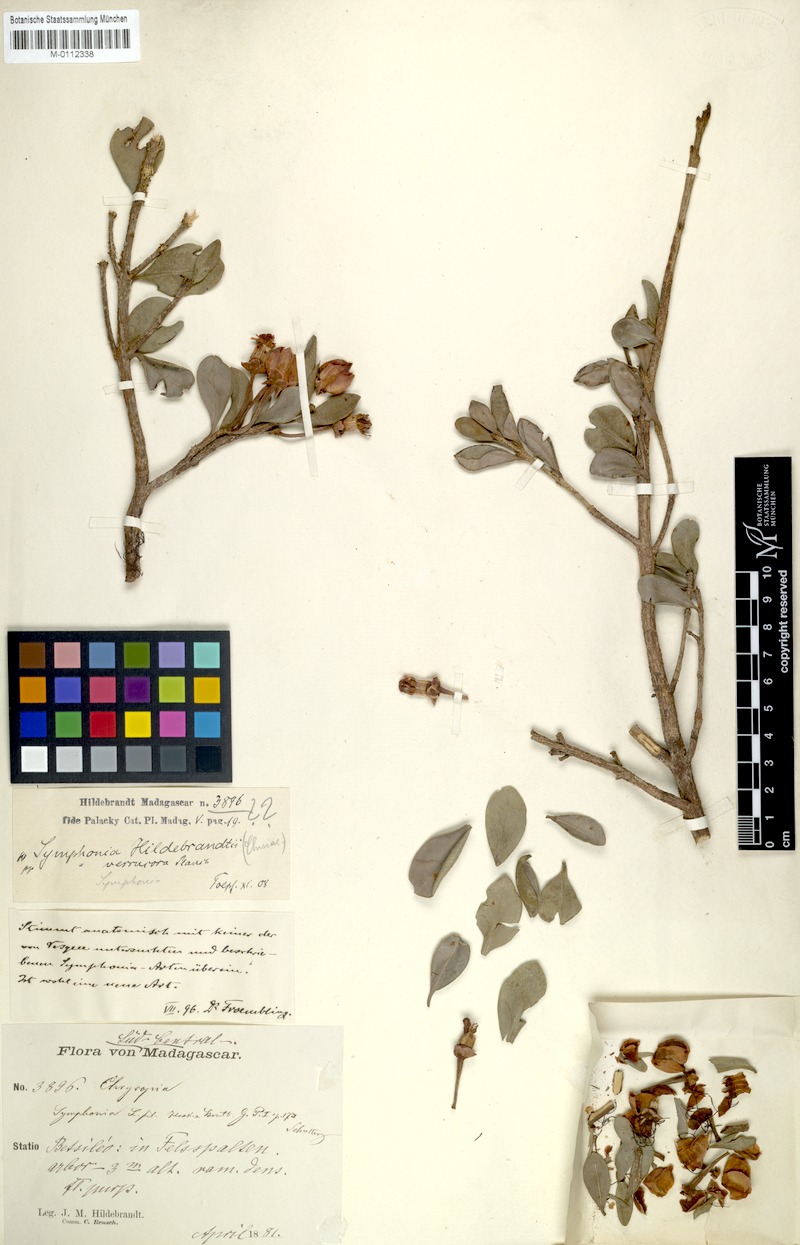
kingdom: Plantae
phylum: Tracheophyta
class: Magnoliopsida
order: Malpighiales
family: Clusiaceae
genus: Symphonia
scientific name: Symphonia gymnoclada
